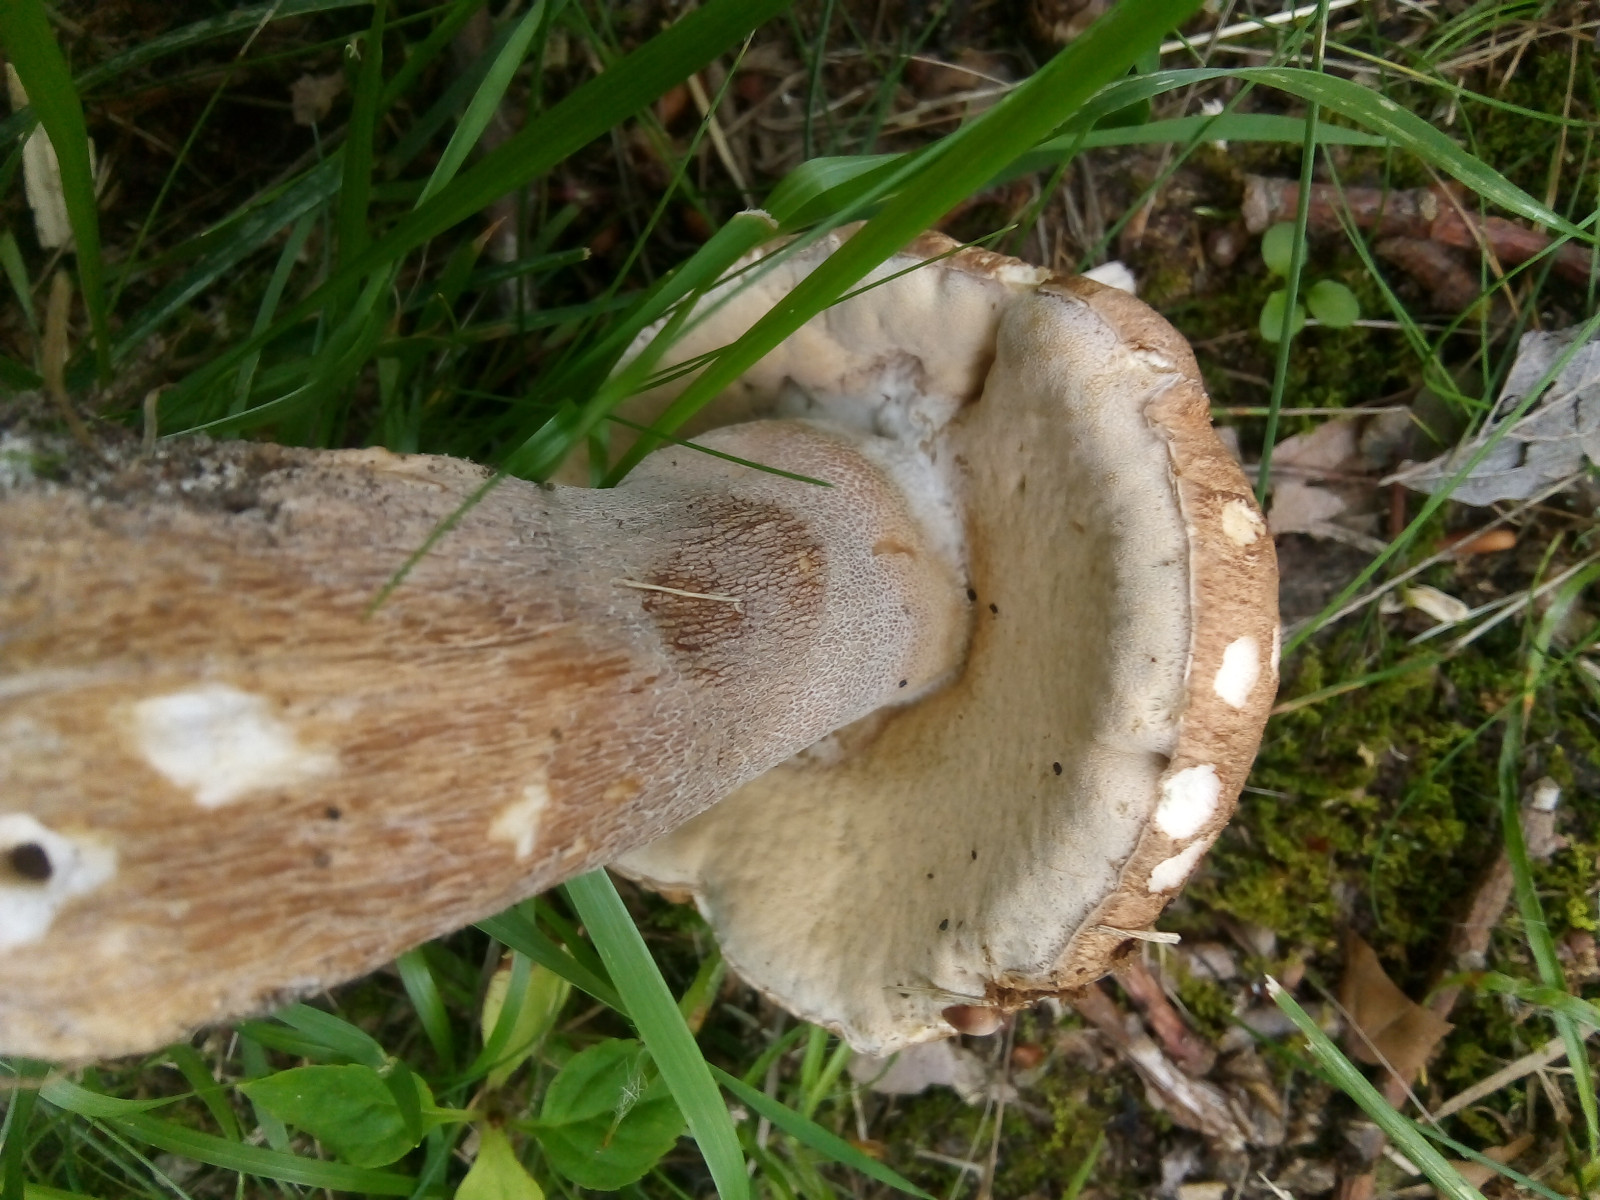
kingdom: Fungi
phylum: Basidiomycota
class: Agaricomycetes
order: Boletales
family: Boletaceae
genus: Boletus
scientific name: Boletus reticulatus
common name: sommer-rørhat
